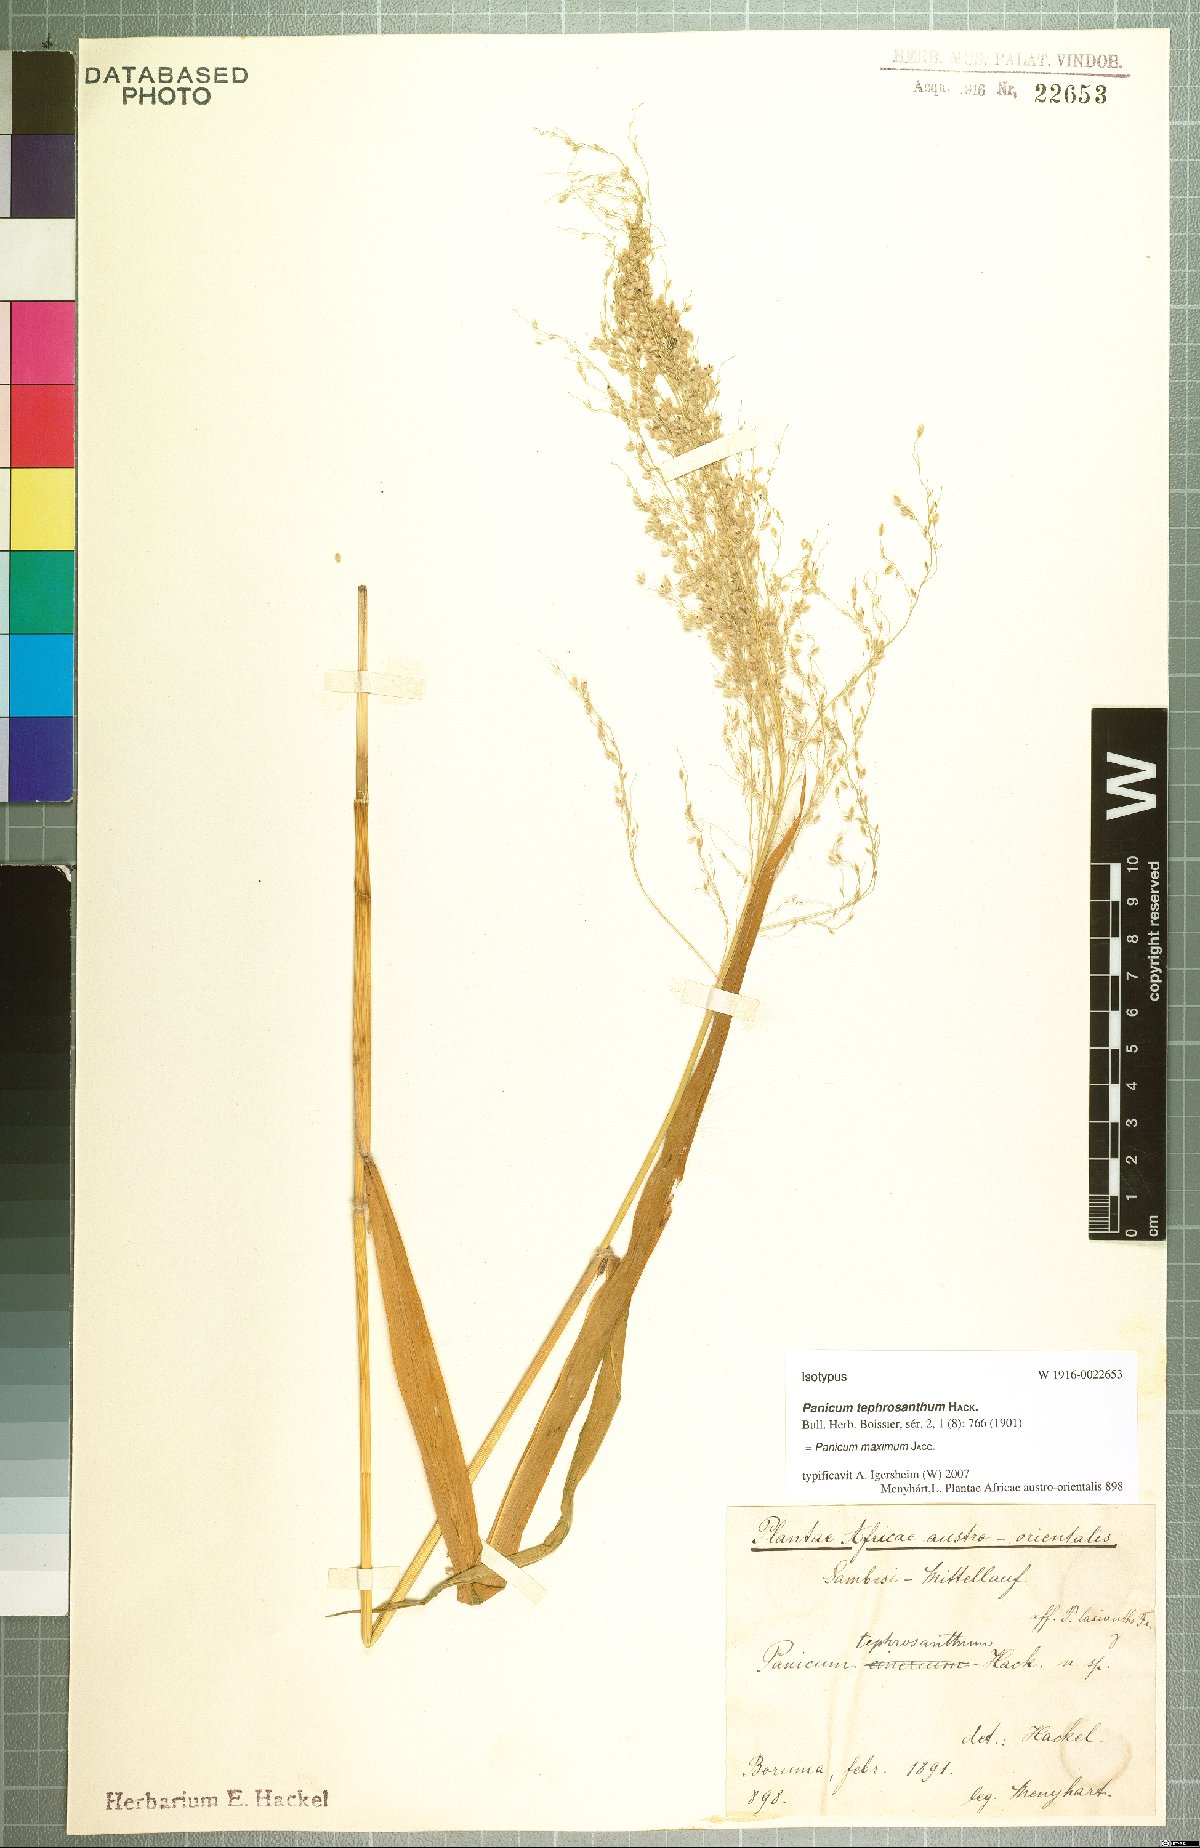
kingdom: Plantae
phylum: Tracheophyta
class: Liliopsida
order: Poales
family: Poaceae
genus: Megathyrsus
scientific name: Megathyrsus maximus
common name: Guineagrass
